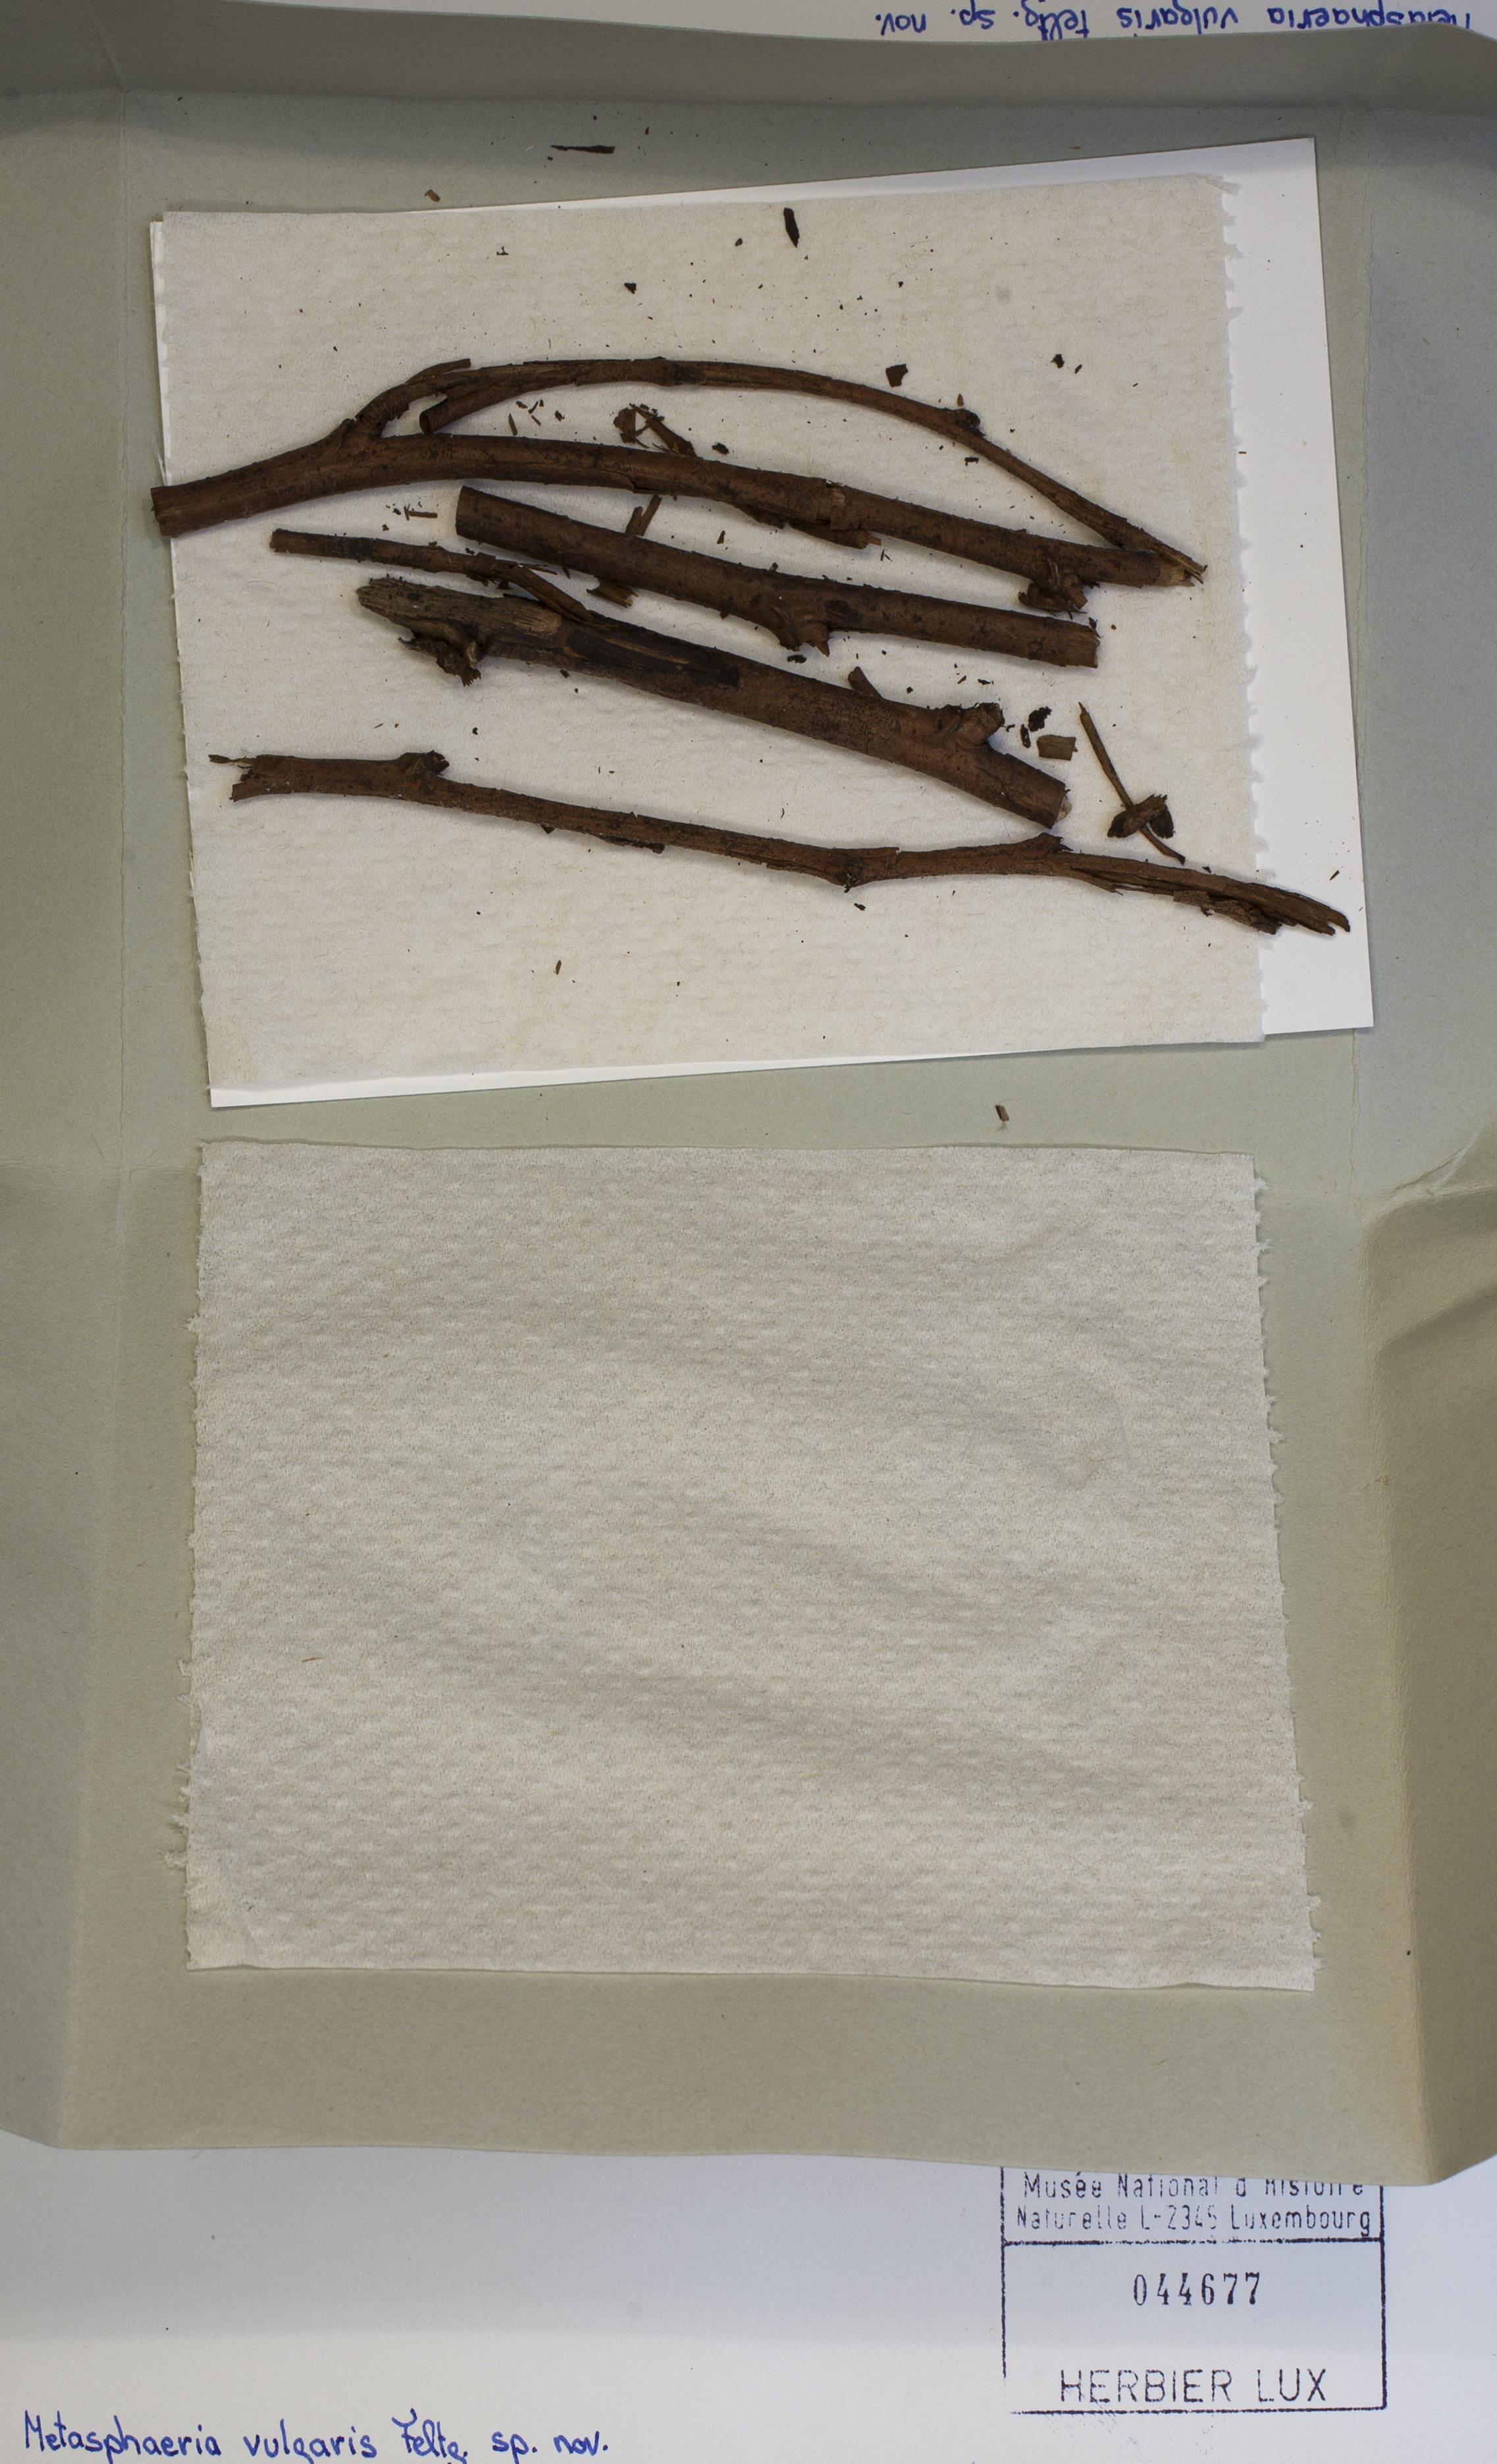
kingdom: Fungi
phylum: Ascomycota
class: Dothideomycetes
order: Dothideales
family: Saccotheciaceae
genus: Metasphaeria
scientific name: Metasphaeria vulgaris
